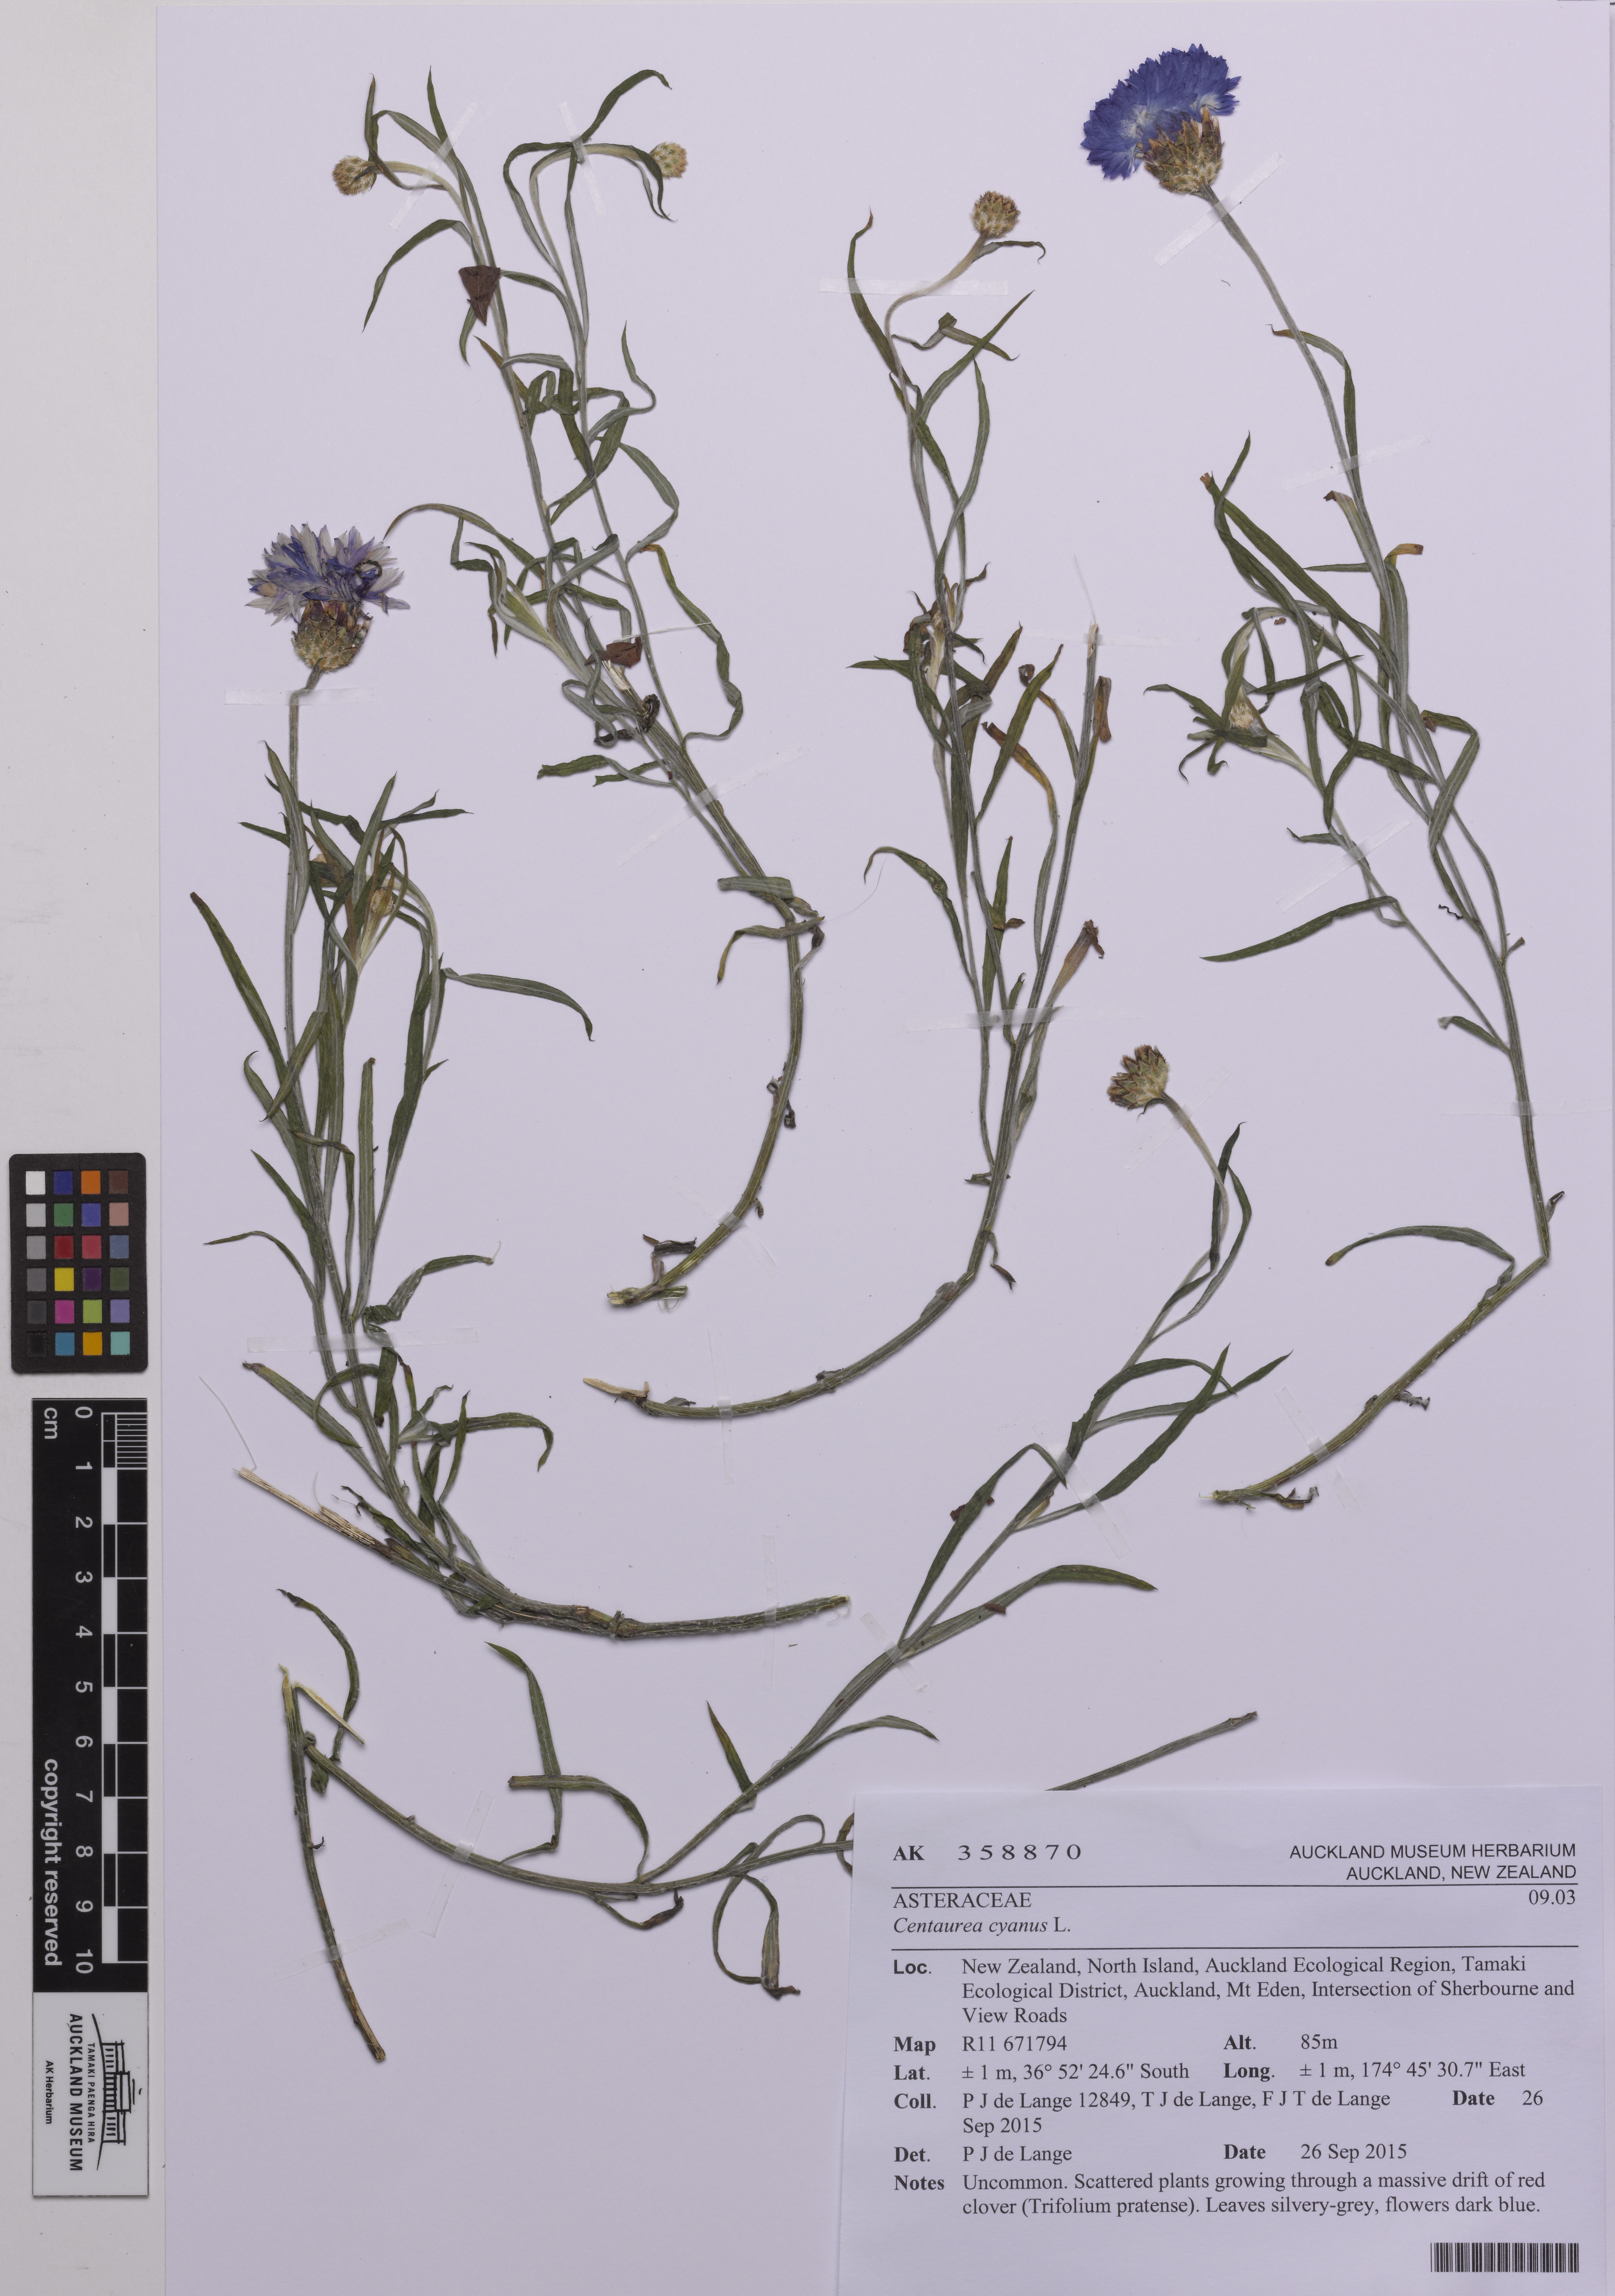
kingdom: Plantae
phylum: Tracheophyta
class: Magnoliopsida
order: Asterales
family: Asteraceae
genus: Centaurea
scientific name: Centaurea cyanus
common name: Cornflower
